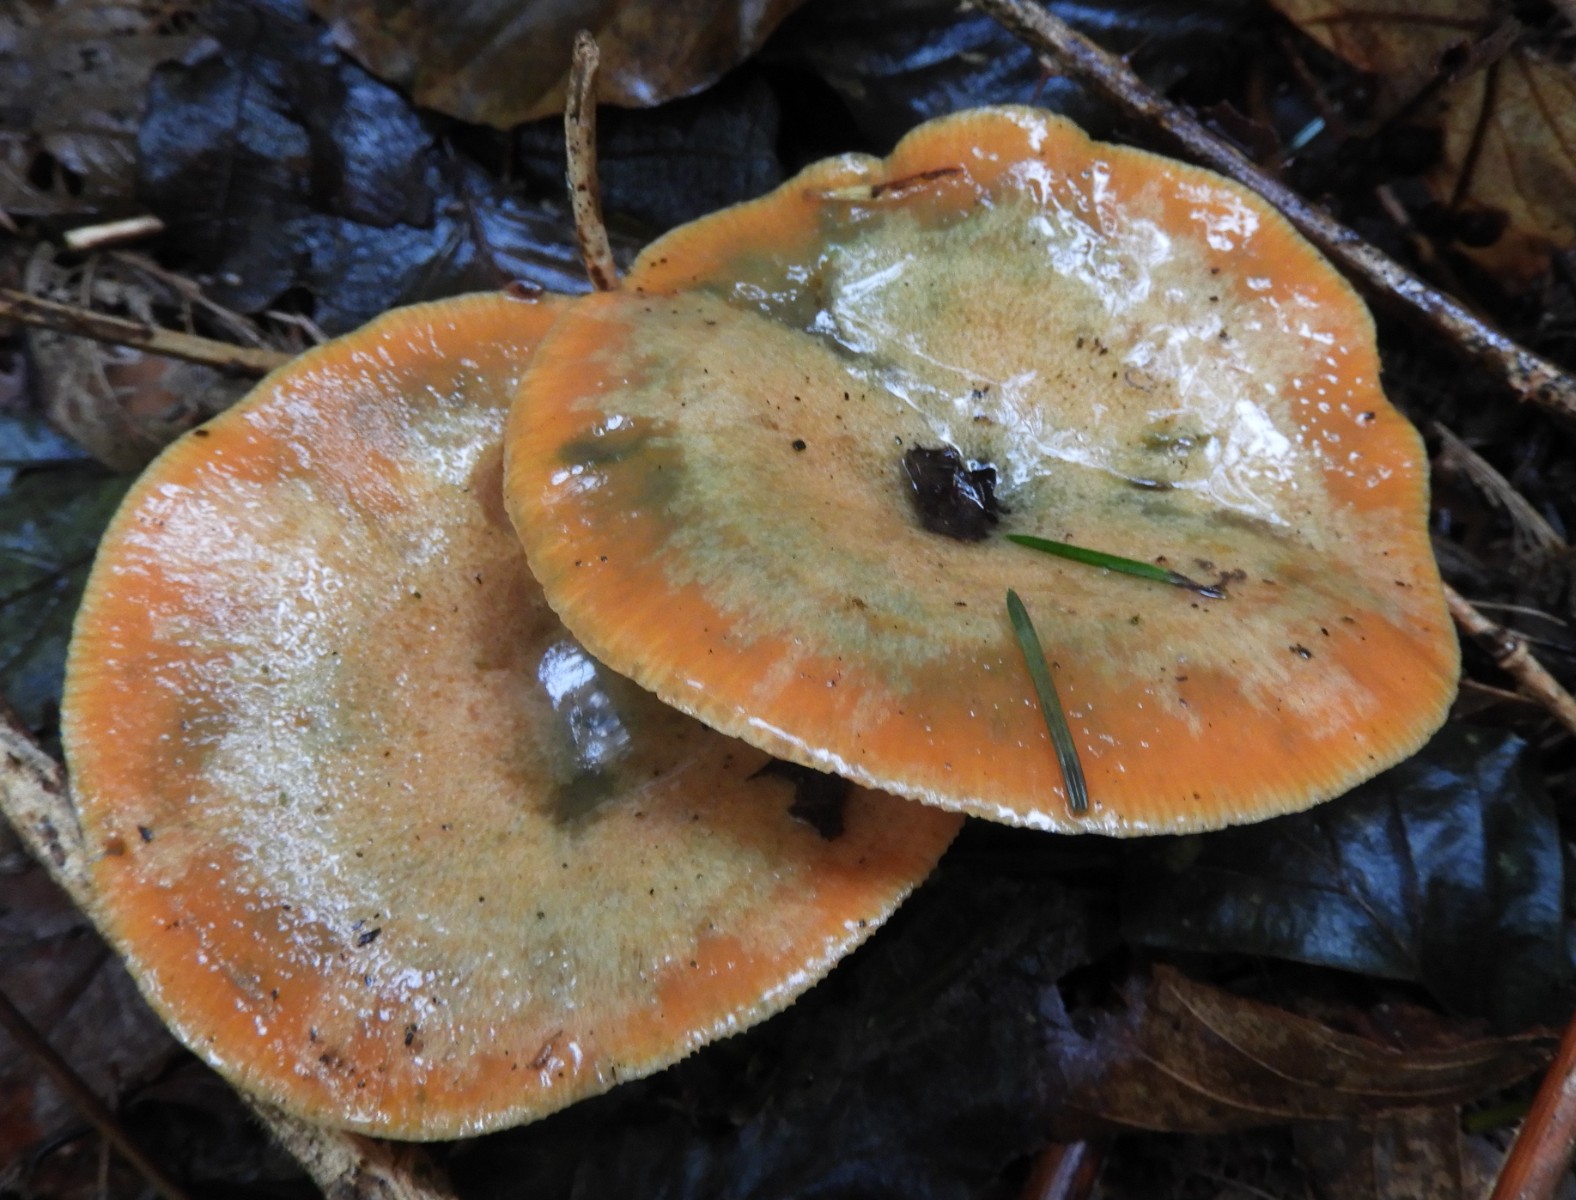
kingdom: Fungi
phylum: Basidiomycota
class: Agaricomycetes
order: Russulales
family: Russulaceae
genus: Lactarius
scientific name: Lactarius deterrimus
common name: gran-mælkehat
